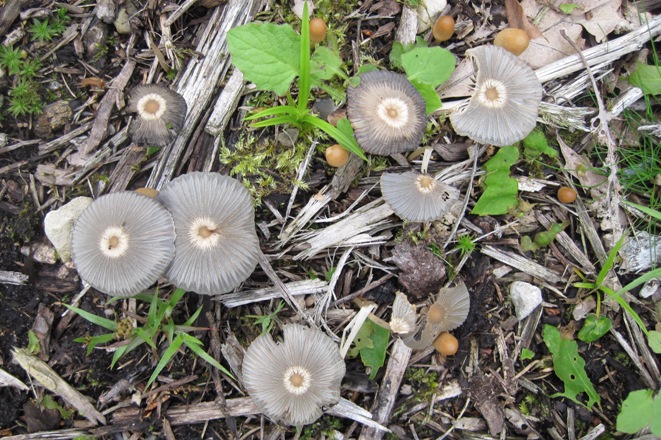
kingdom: Fungi
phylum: Basidiomycota
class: Agaricomycetes
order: Agaricales
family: Psathyrellaceae
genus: Parasola
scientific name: Parasola lactea
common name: glat hjulhat
